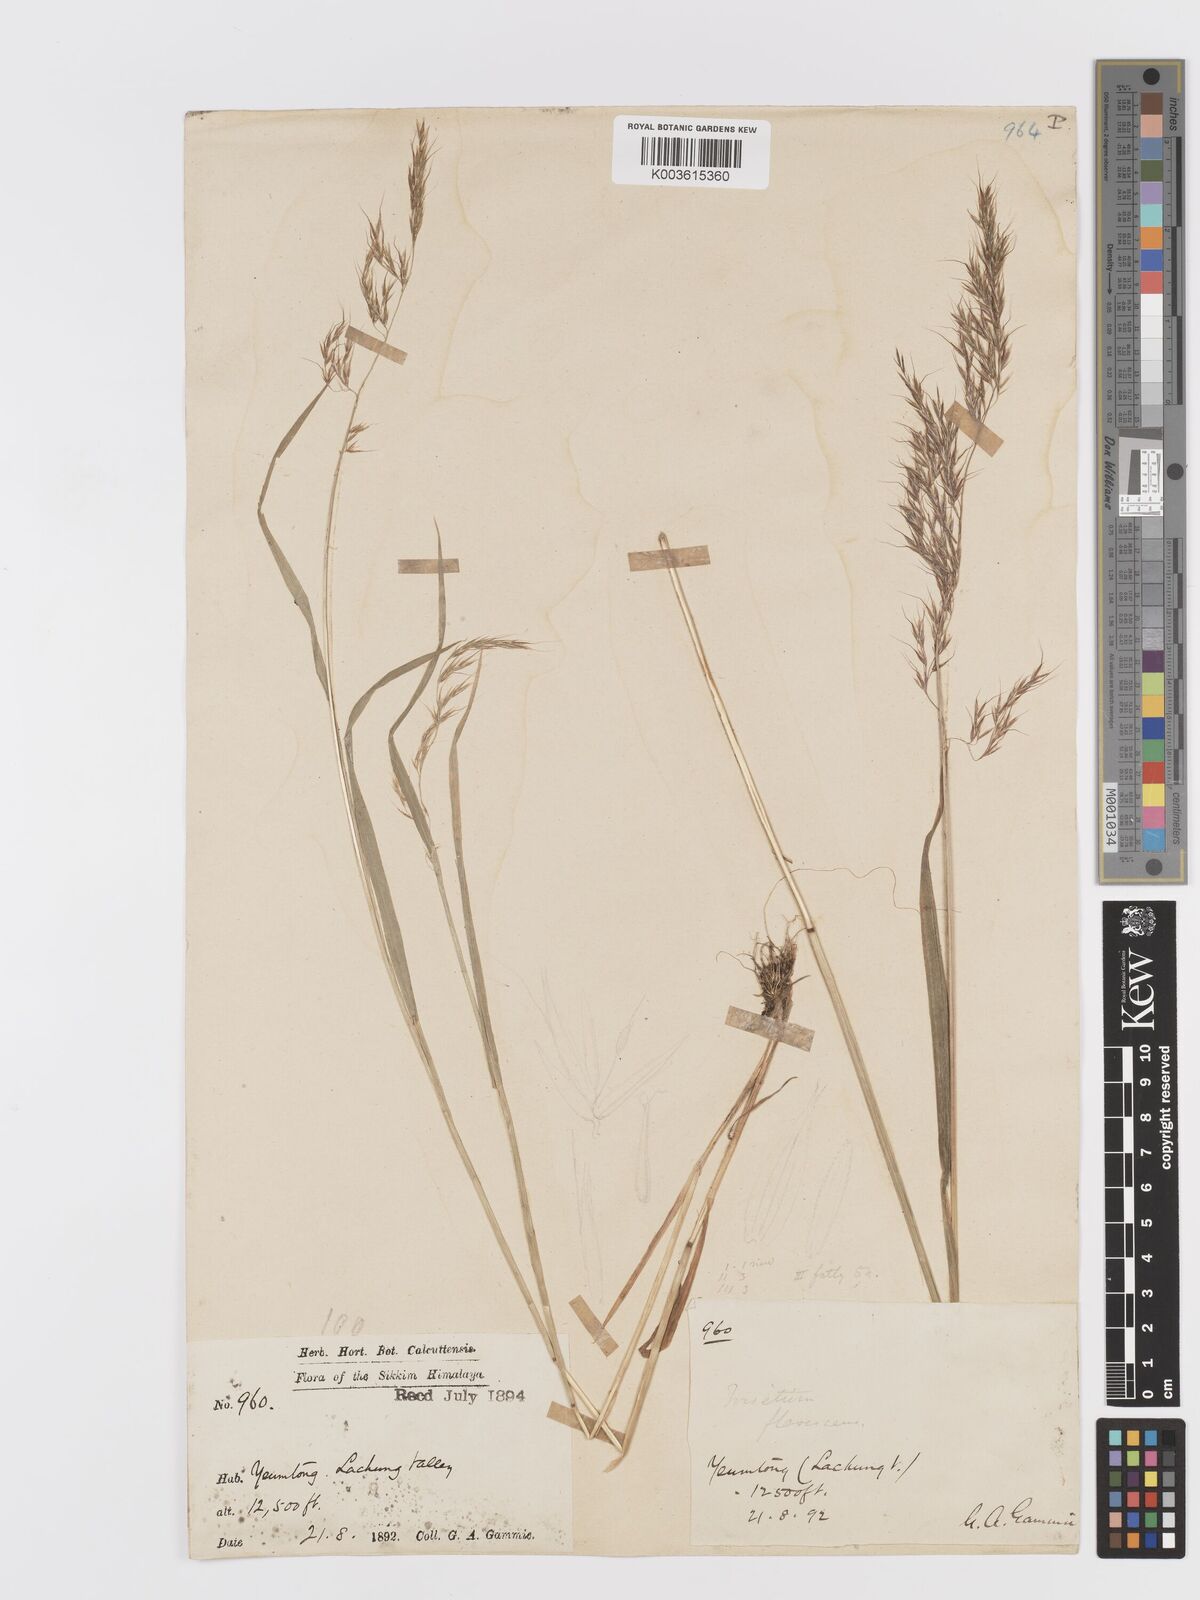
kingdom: Plantae
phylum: Tracheophyta
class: Liliopsida
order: Poales
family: Poaceae
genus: Sibirotrisetum
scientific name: Sibirotrisetum scitulum
